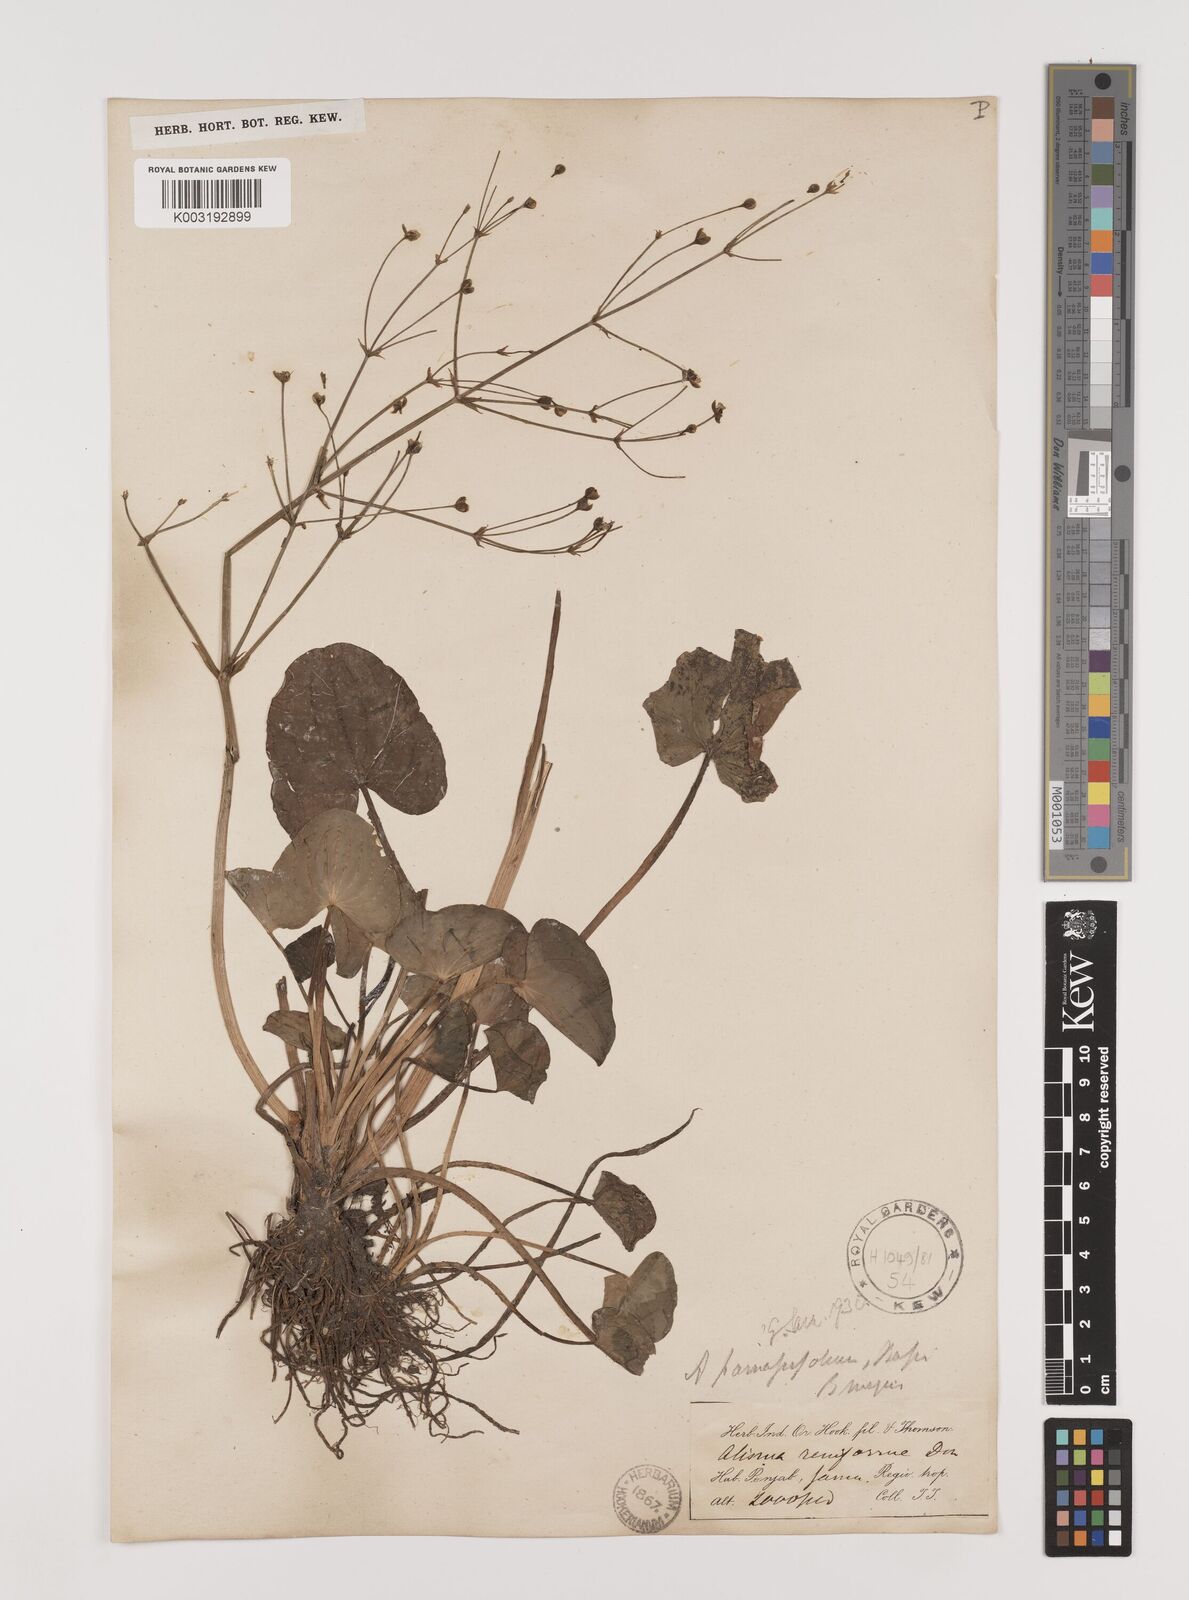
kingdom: Plantae
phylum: Tracheophyta
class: Liliopsida
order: Alismatales
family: Alismataceae
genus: Caldesia
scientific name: Caldesia parnassifolia
